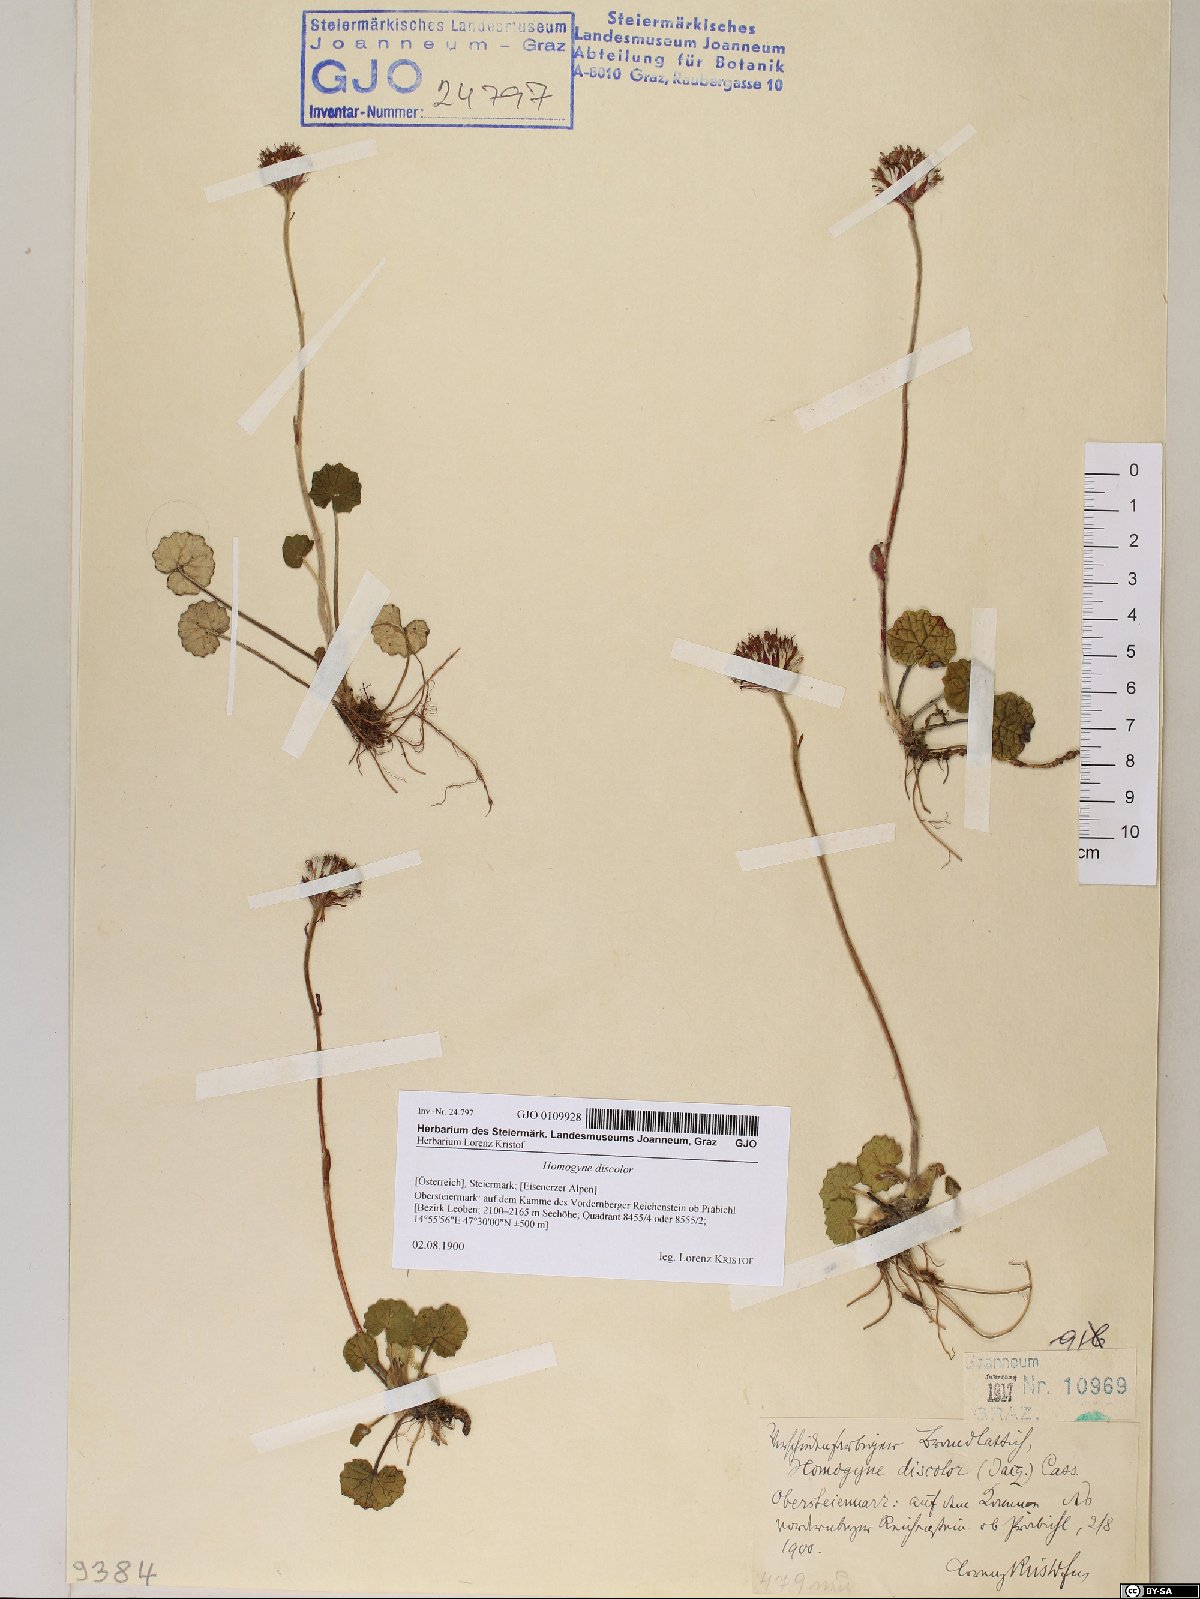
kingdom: Plantae
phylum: Tracheophyta
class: Magnoliopsida
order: Asterales
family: Asteraceae
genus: Homogyne
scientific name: Homogyne discolor
